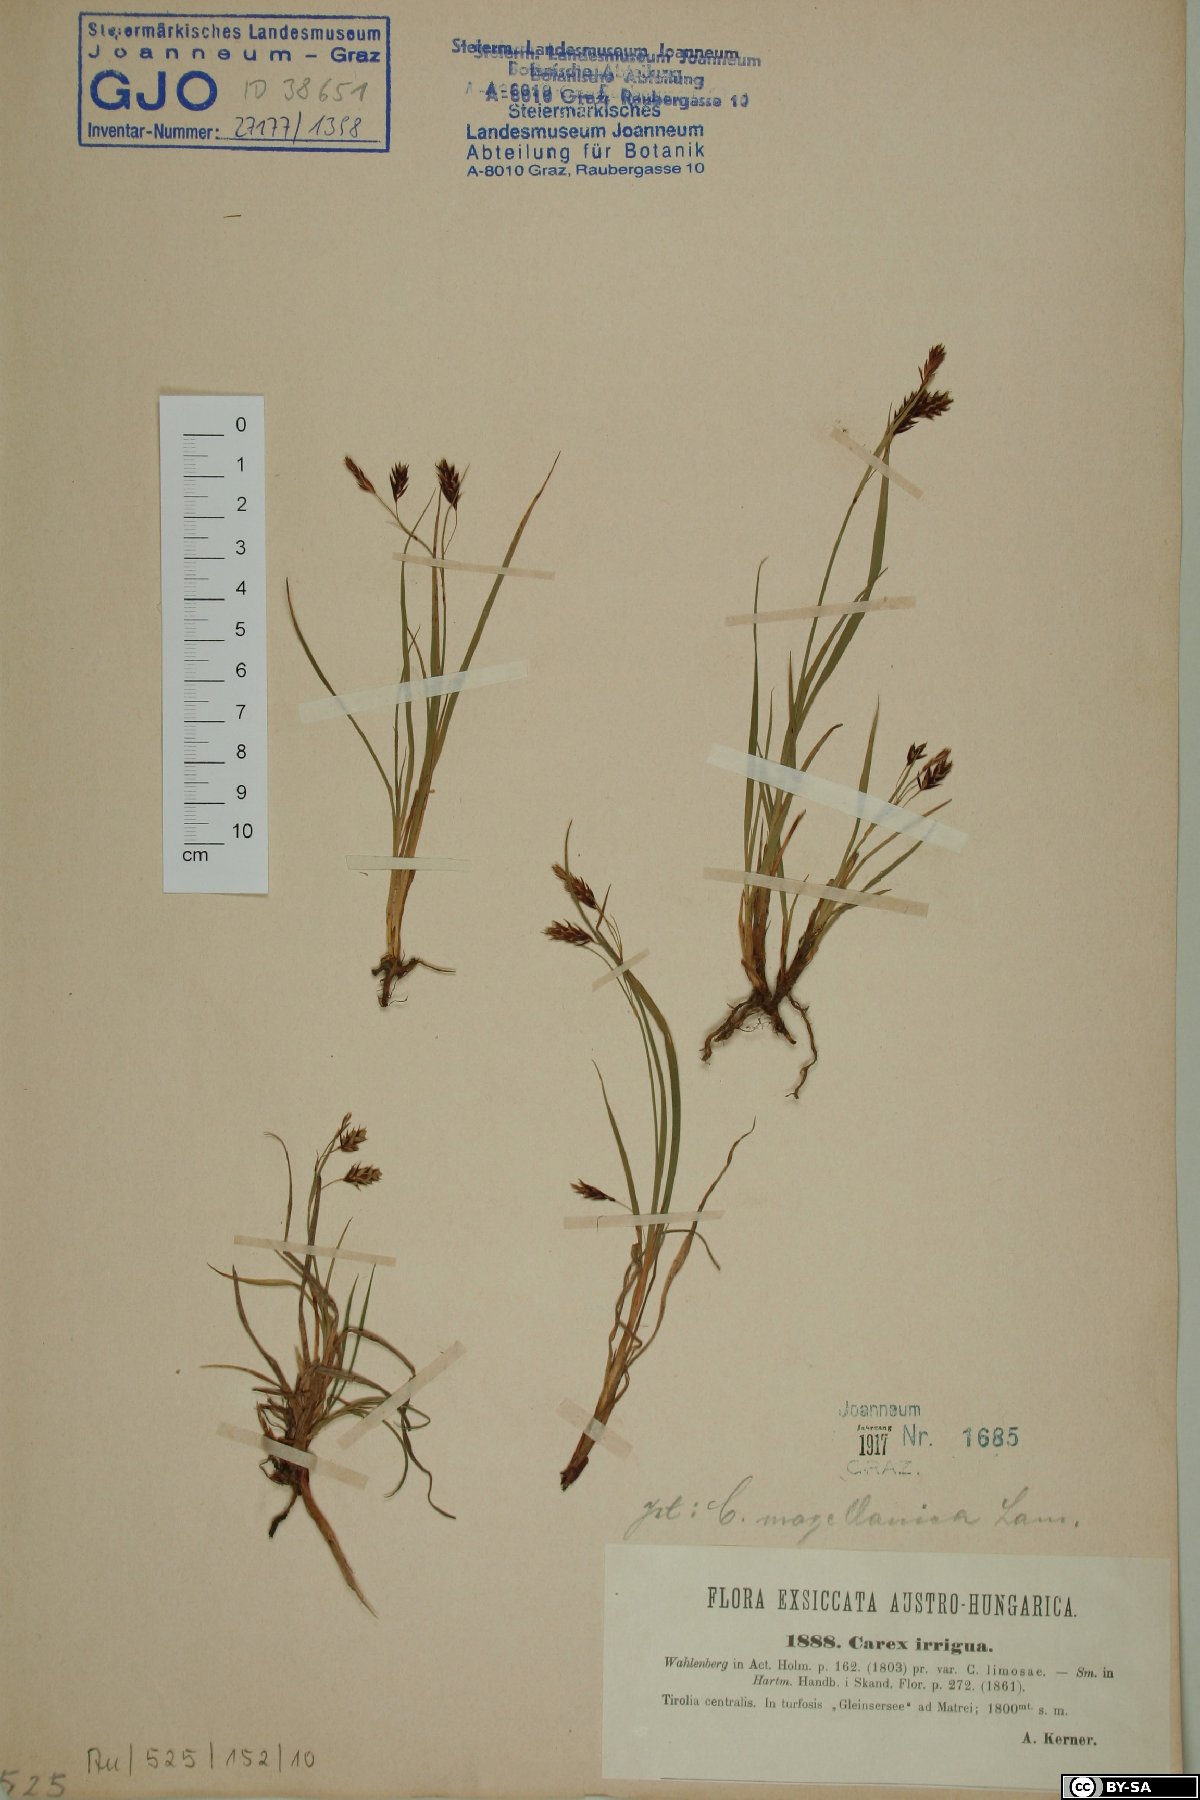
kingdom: Plantae
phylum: Tracheophyta
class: Liliopsida
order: Poales
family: Cyperaceae
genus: Carex
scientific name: Carex magellanica
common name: Bog sedge
